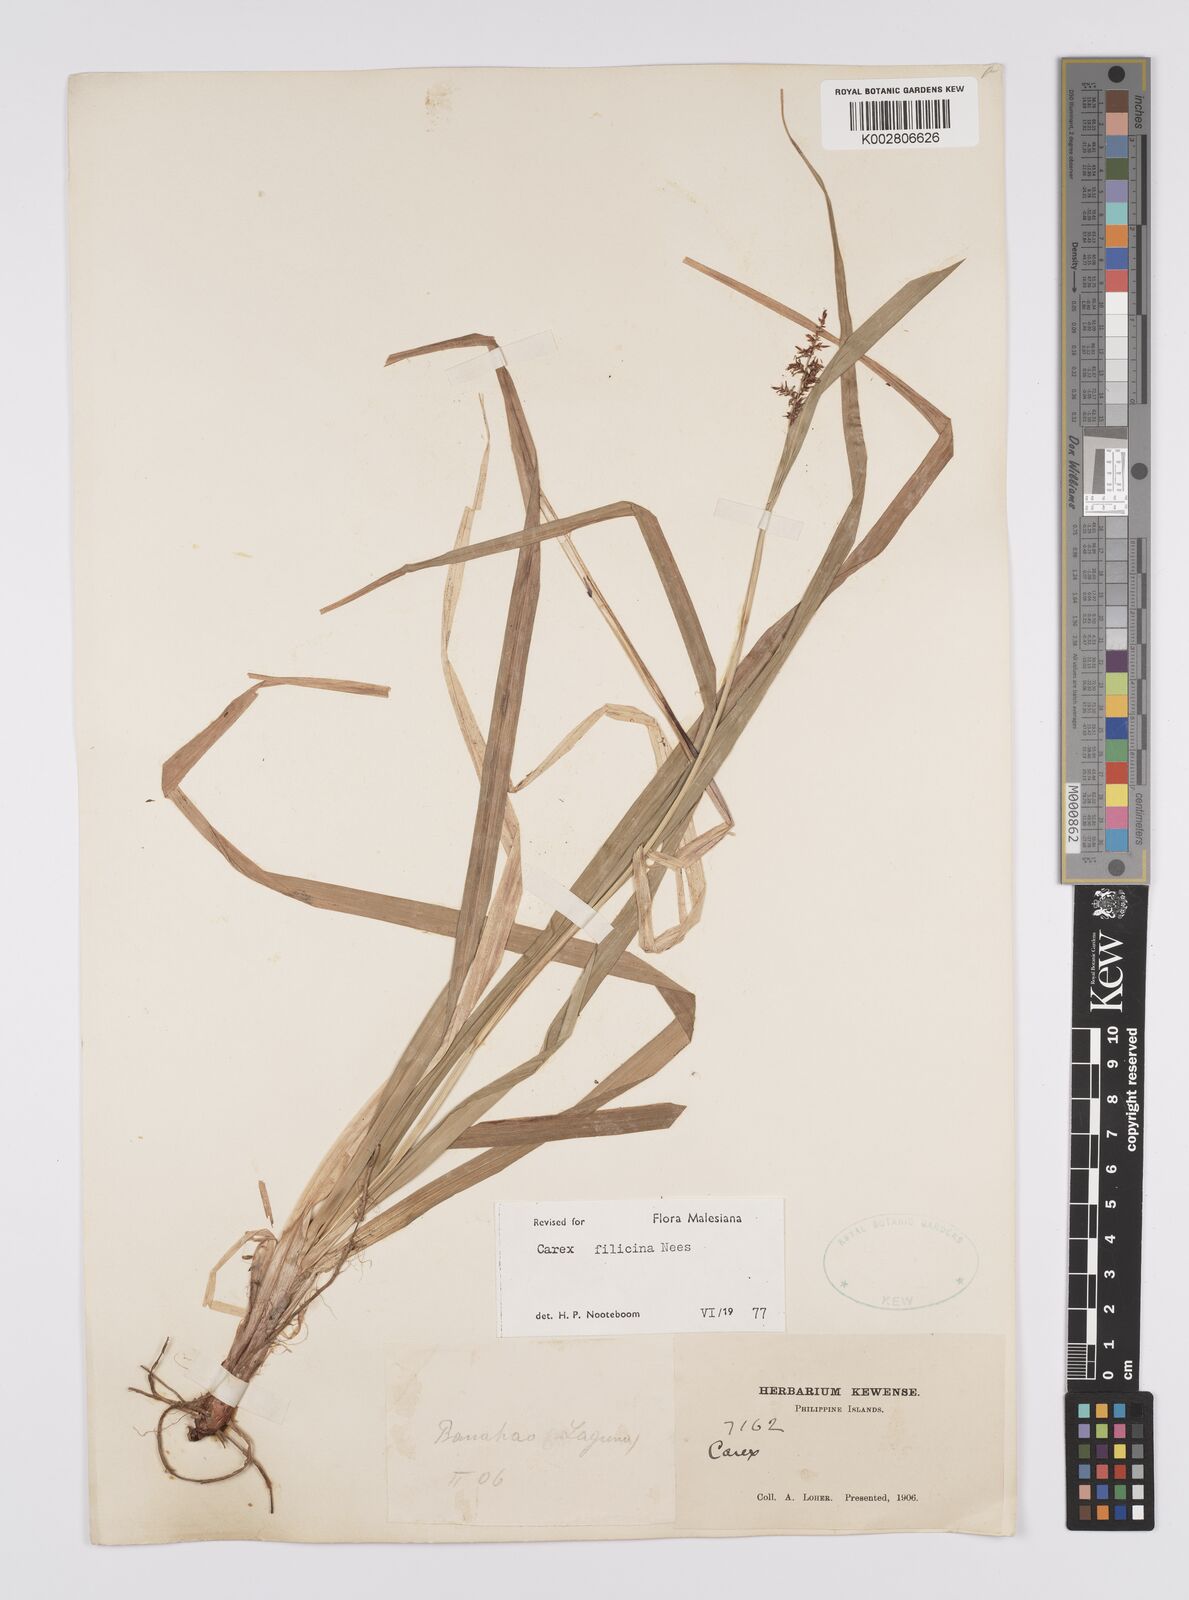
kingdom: Plantae
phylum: Tracheophyta
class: Liliopsida
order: Poales
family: Cyperaceae
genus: Carex
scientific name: Carex filicina
